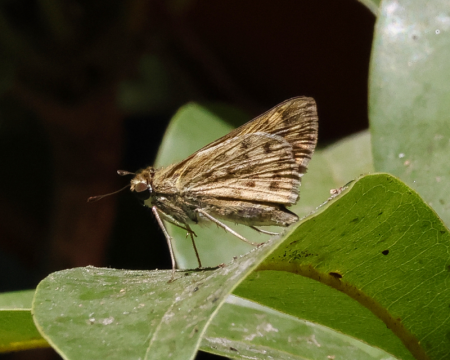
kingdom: Animalia
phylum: Arthropoda
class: Insecta
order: Lepidoptera
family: Hesperiidae
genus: Hylephila
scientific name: Hylephila phyleus
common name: Fiery Skipper
